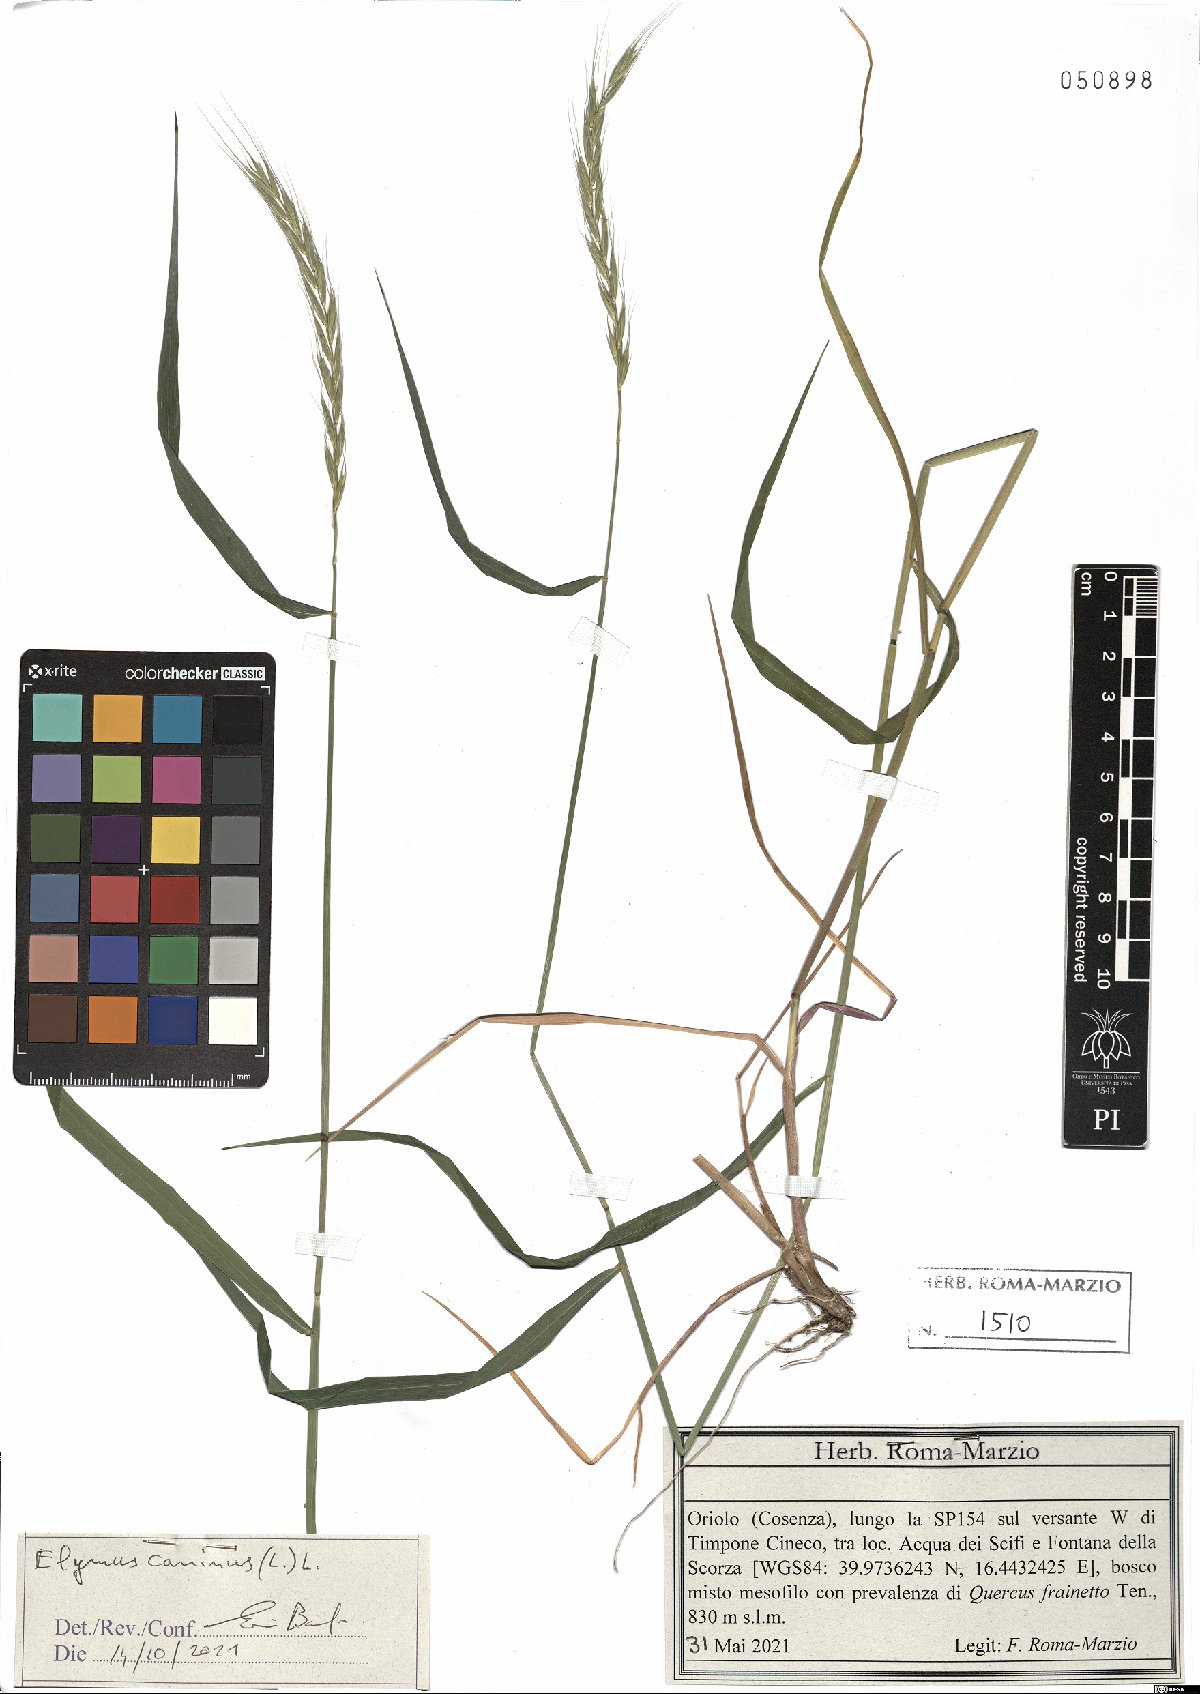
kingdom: Plantae
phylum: Tracheophyta
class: Liliopsida
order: Poales
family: Poaceae
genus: Elymus
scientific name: Elymus caninus
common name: Bearded couch
